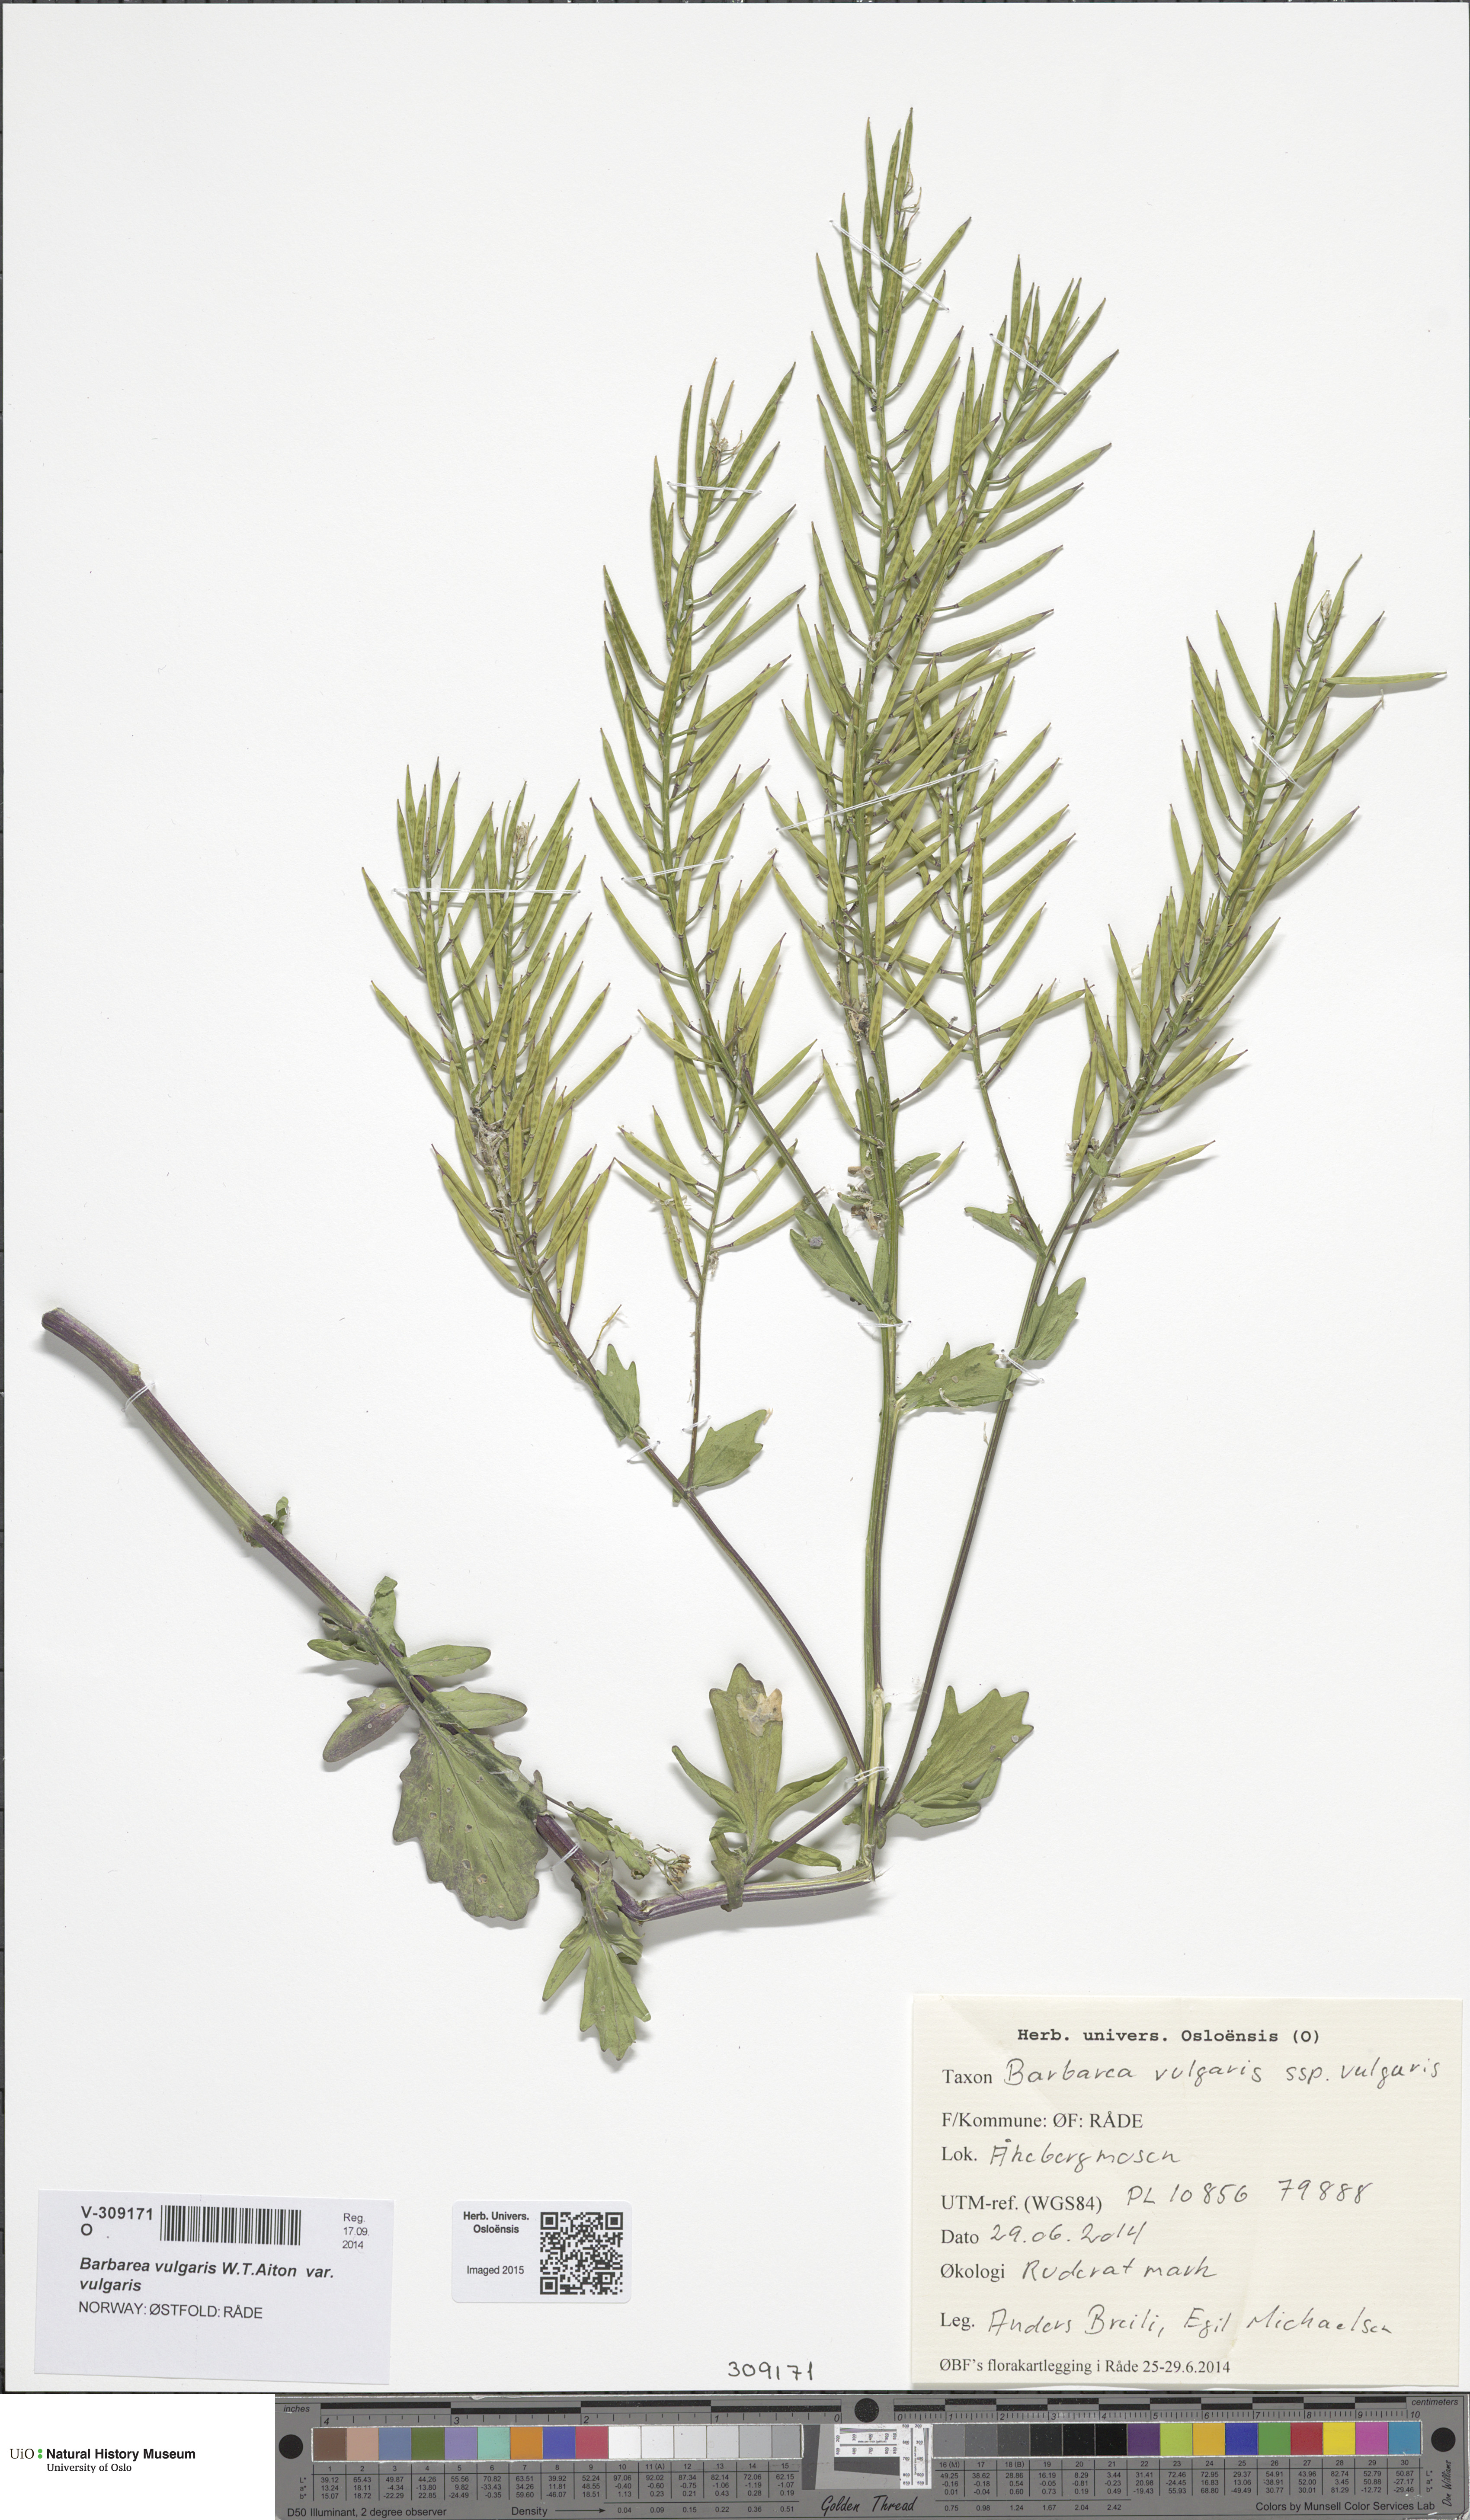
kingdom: Plantae
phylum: Tracheophyta
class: Magnoliopsida
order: Brassicales
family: Brassicaceae
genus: Barbarea
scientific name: Barbarea vulgaris
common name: Cressy-greens
